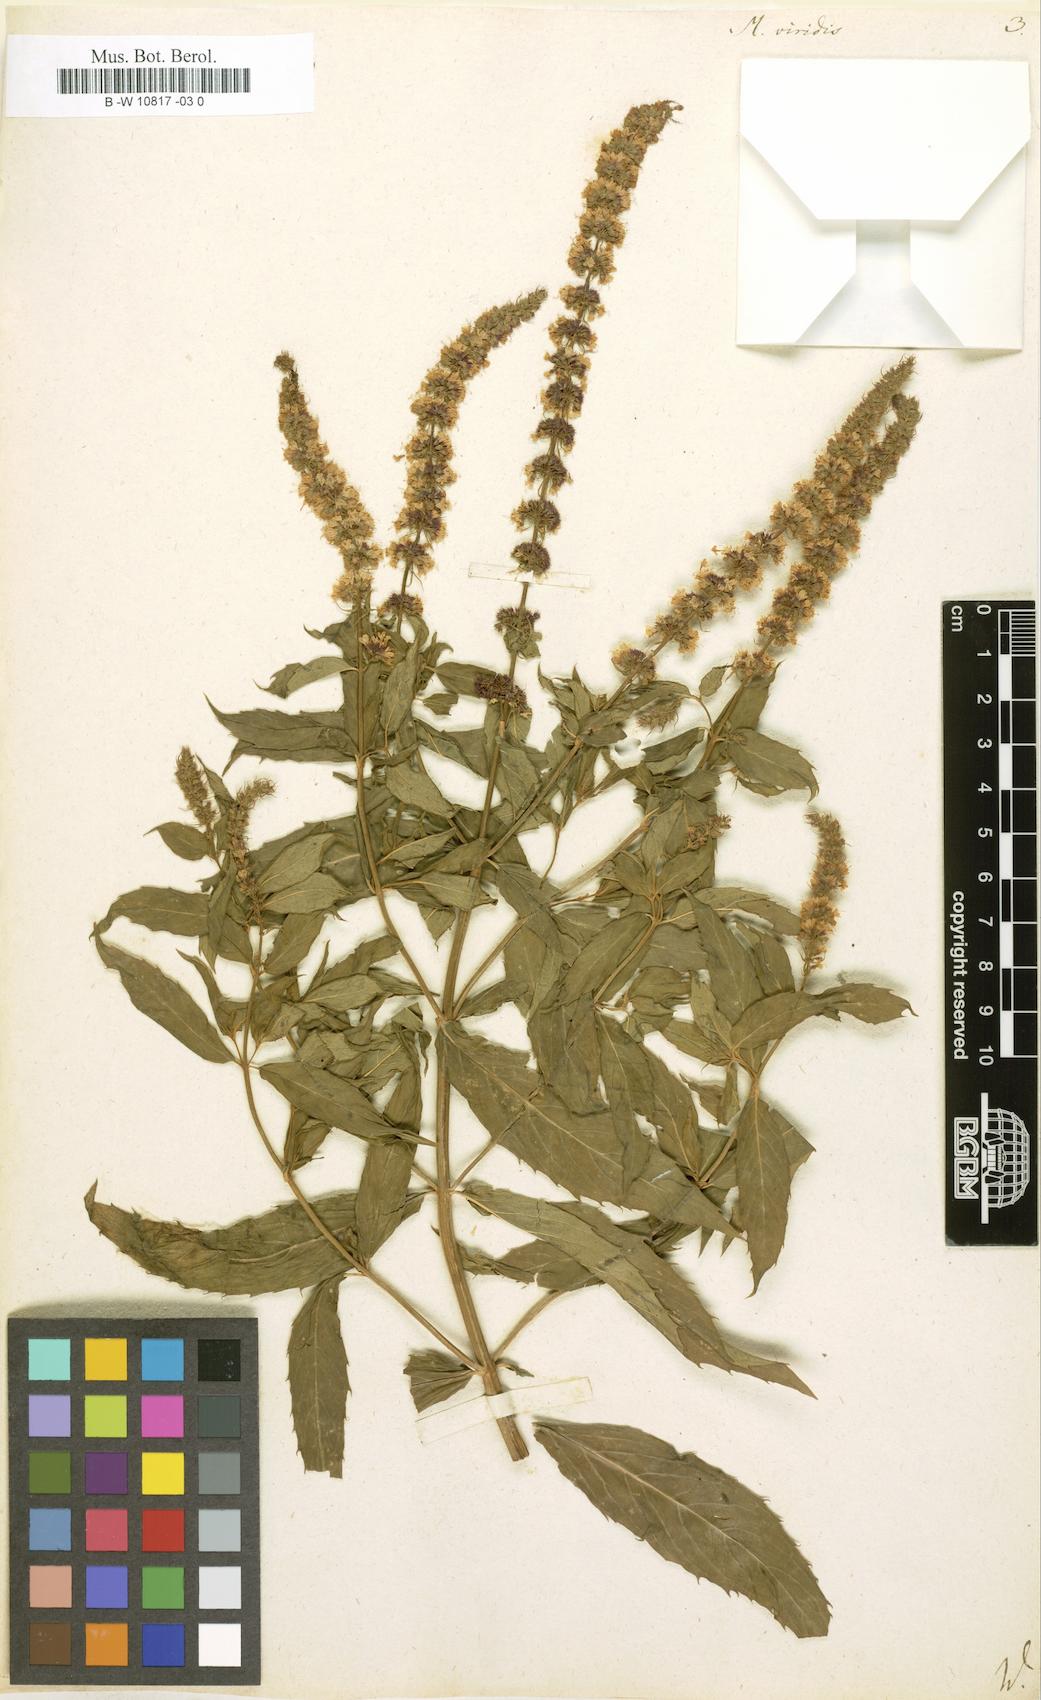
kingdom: Plantae
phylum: Tracheophyta
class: Magnoliopsida
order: Lamiales
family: Lamiaceae
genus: Mentha
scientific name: Mentha spicata
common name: Spearmint
